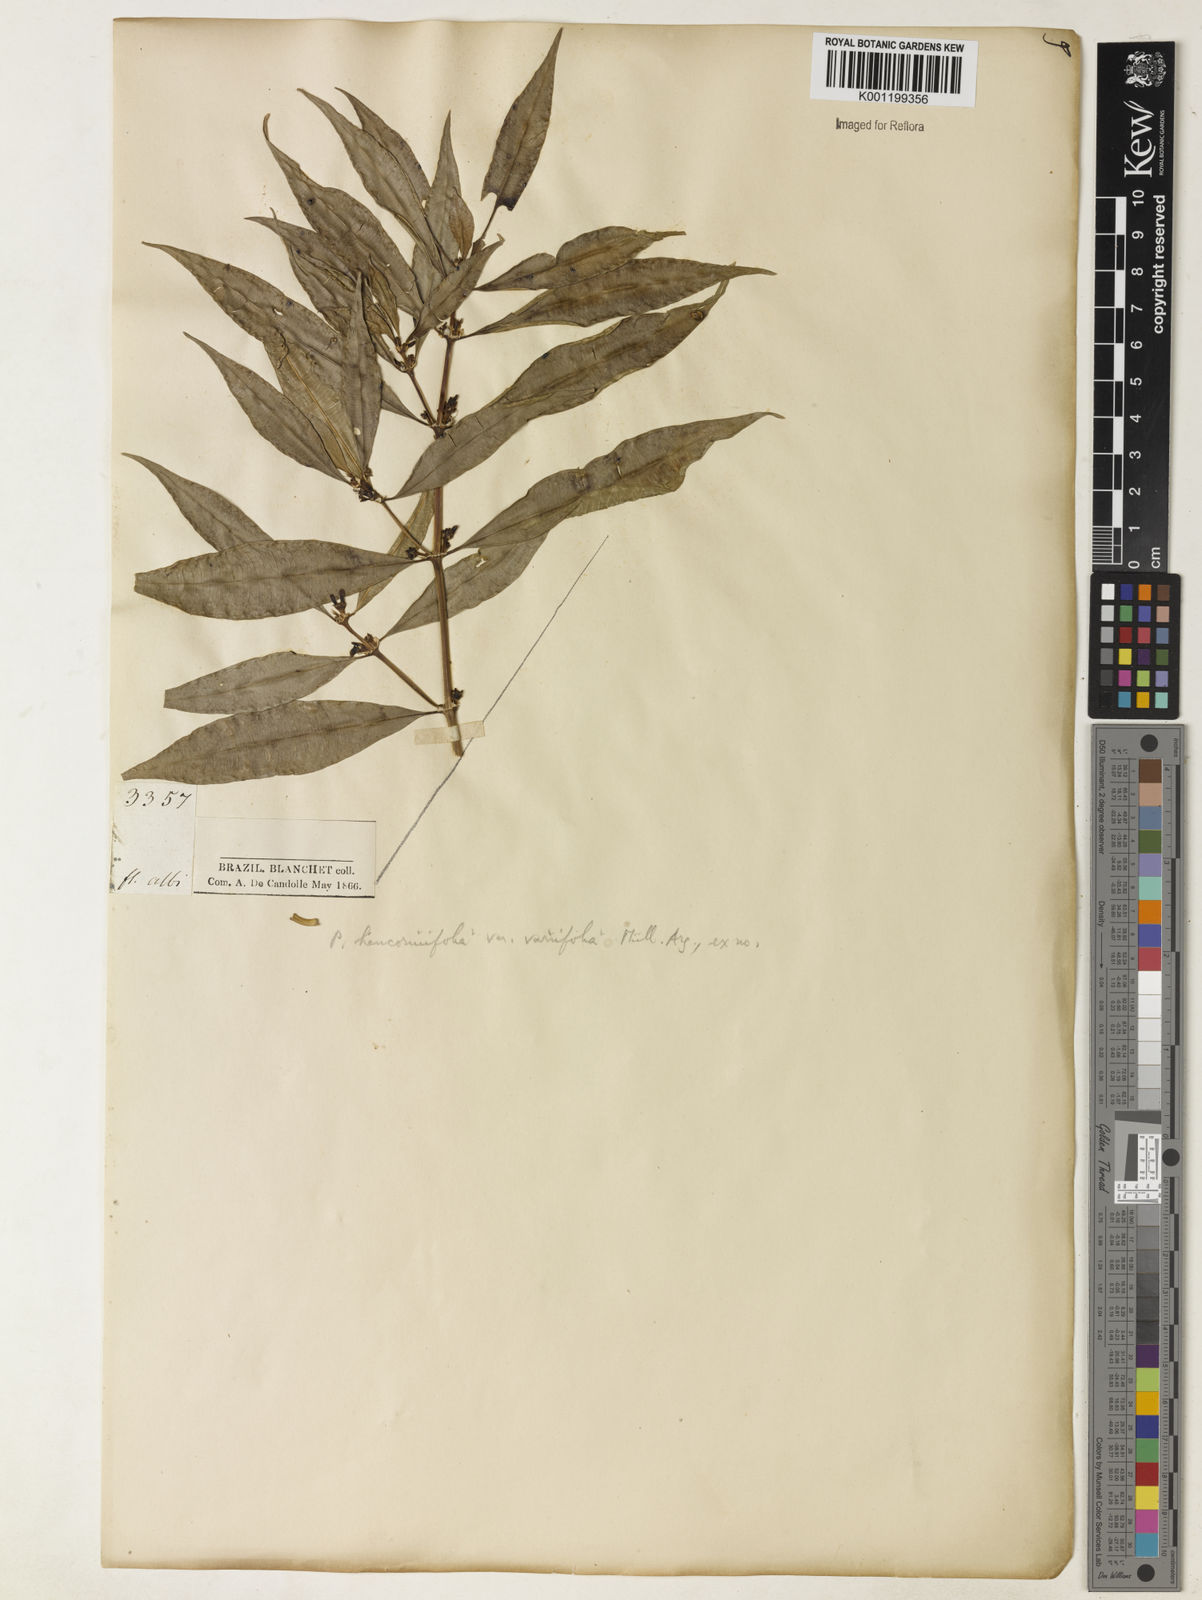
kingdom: Plantae
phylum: Tracheophyta
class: Magnoliopsida
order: Gentianales
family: Rubiaceae
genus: Rudgea
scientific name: Rudgea sessilis
